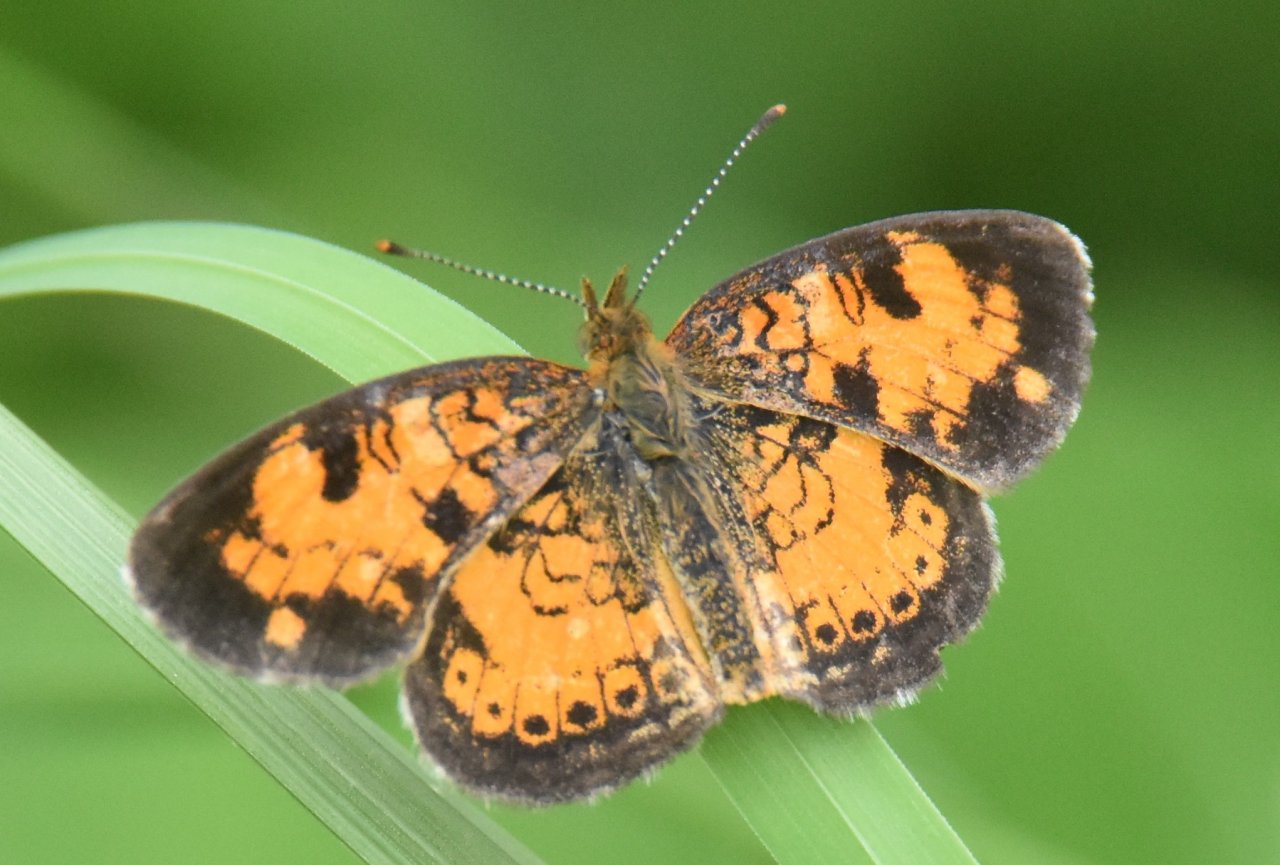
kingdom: Animalia
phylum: Arthropoda
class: Insecta
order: Lepidoptera
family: Nymphalidae
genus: Phyciodes
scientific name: Phyciodes tharos
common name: Northern Crescent
